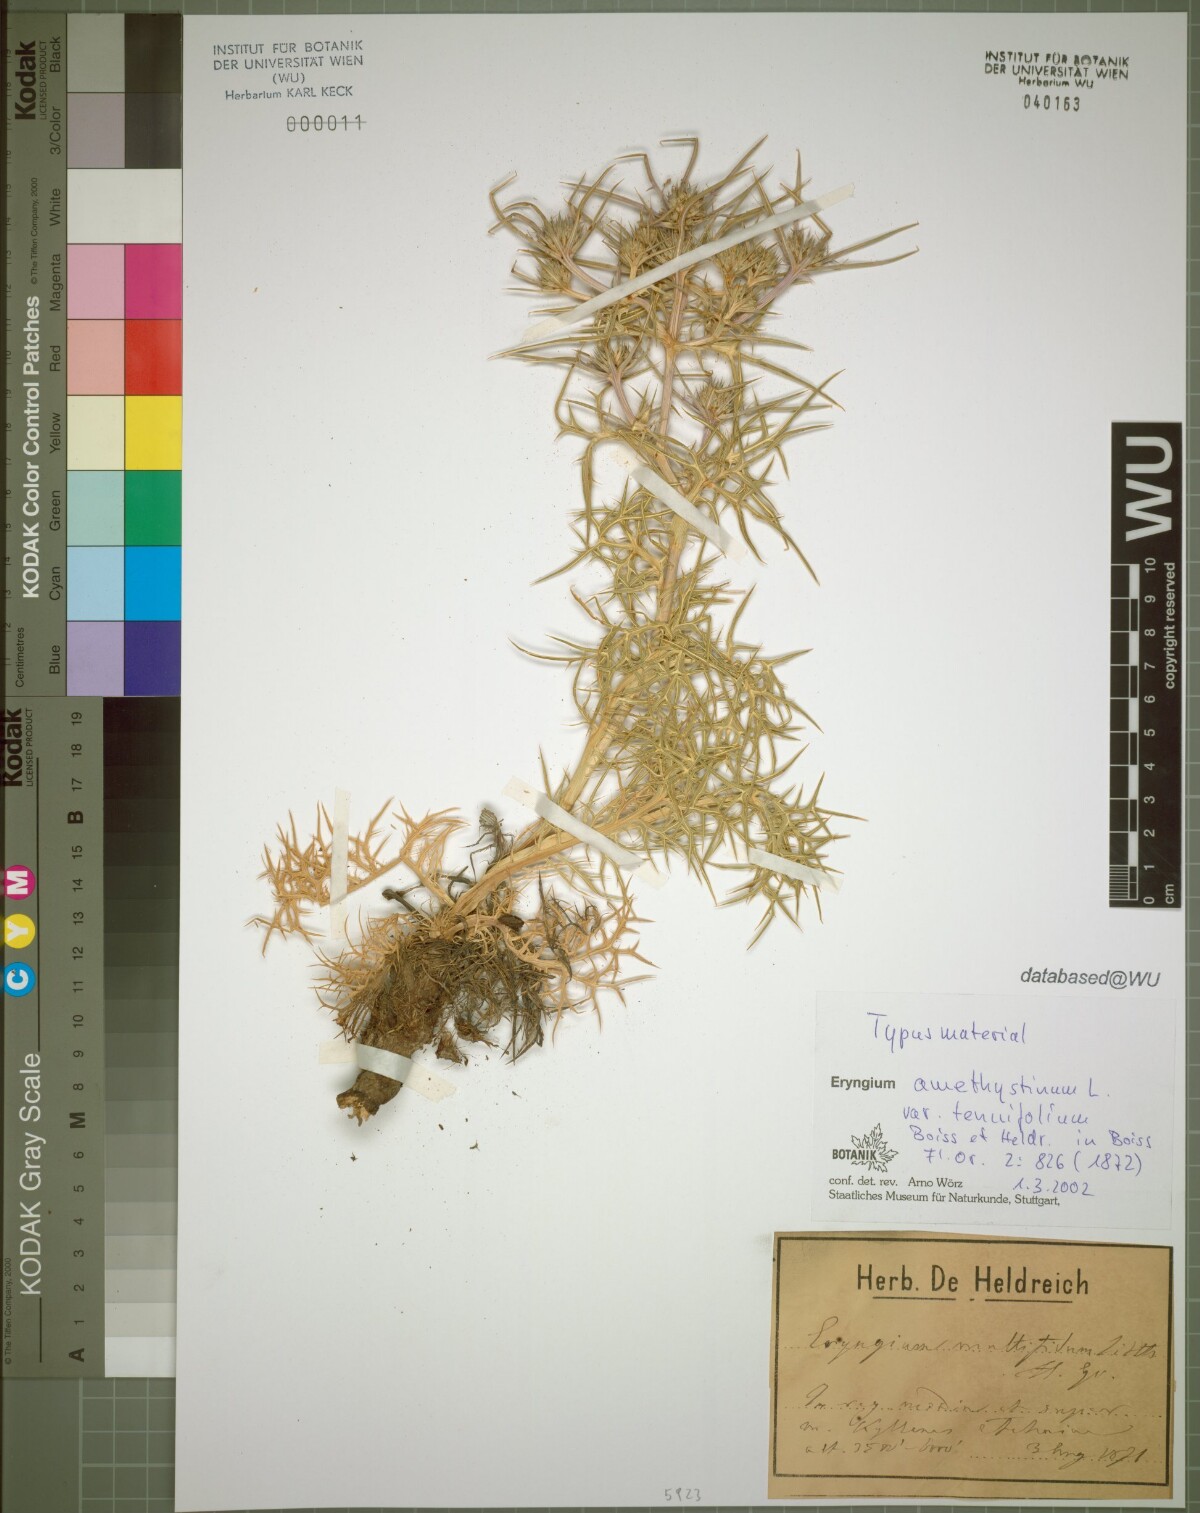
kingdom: Plantae
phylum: Tracheophyta
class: Magnoliopsida
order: Apiales
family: Apiaceae
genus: Eryngium
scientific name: Eryngium amethystinum
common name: Amethyst eryngo
